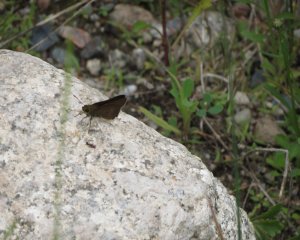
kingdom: Animalia
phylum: Arthropoda
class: Insecta
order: Lepidoptera
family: Hesperiidae
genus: Euphyes
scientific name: Euphyes vestris
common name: Dun Skipper
